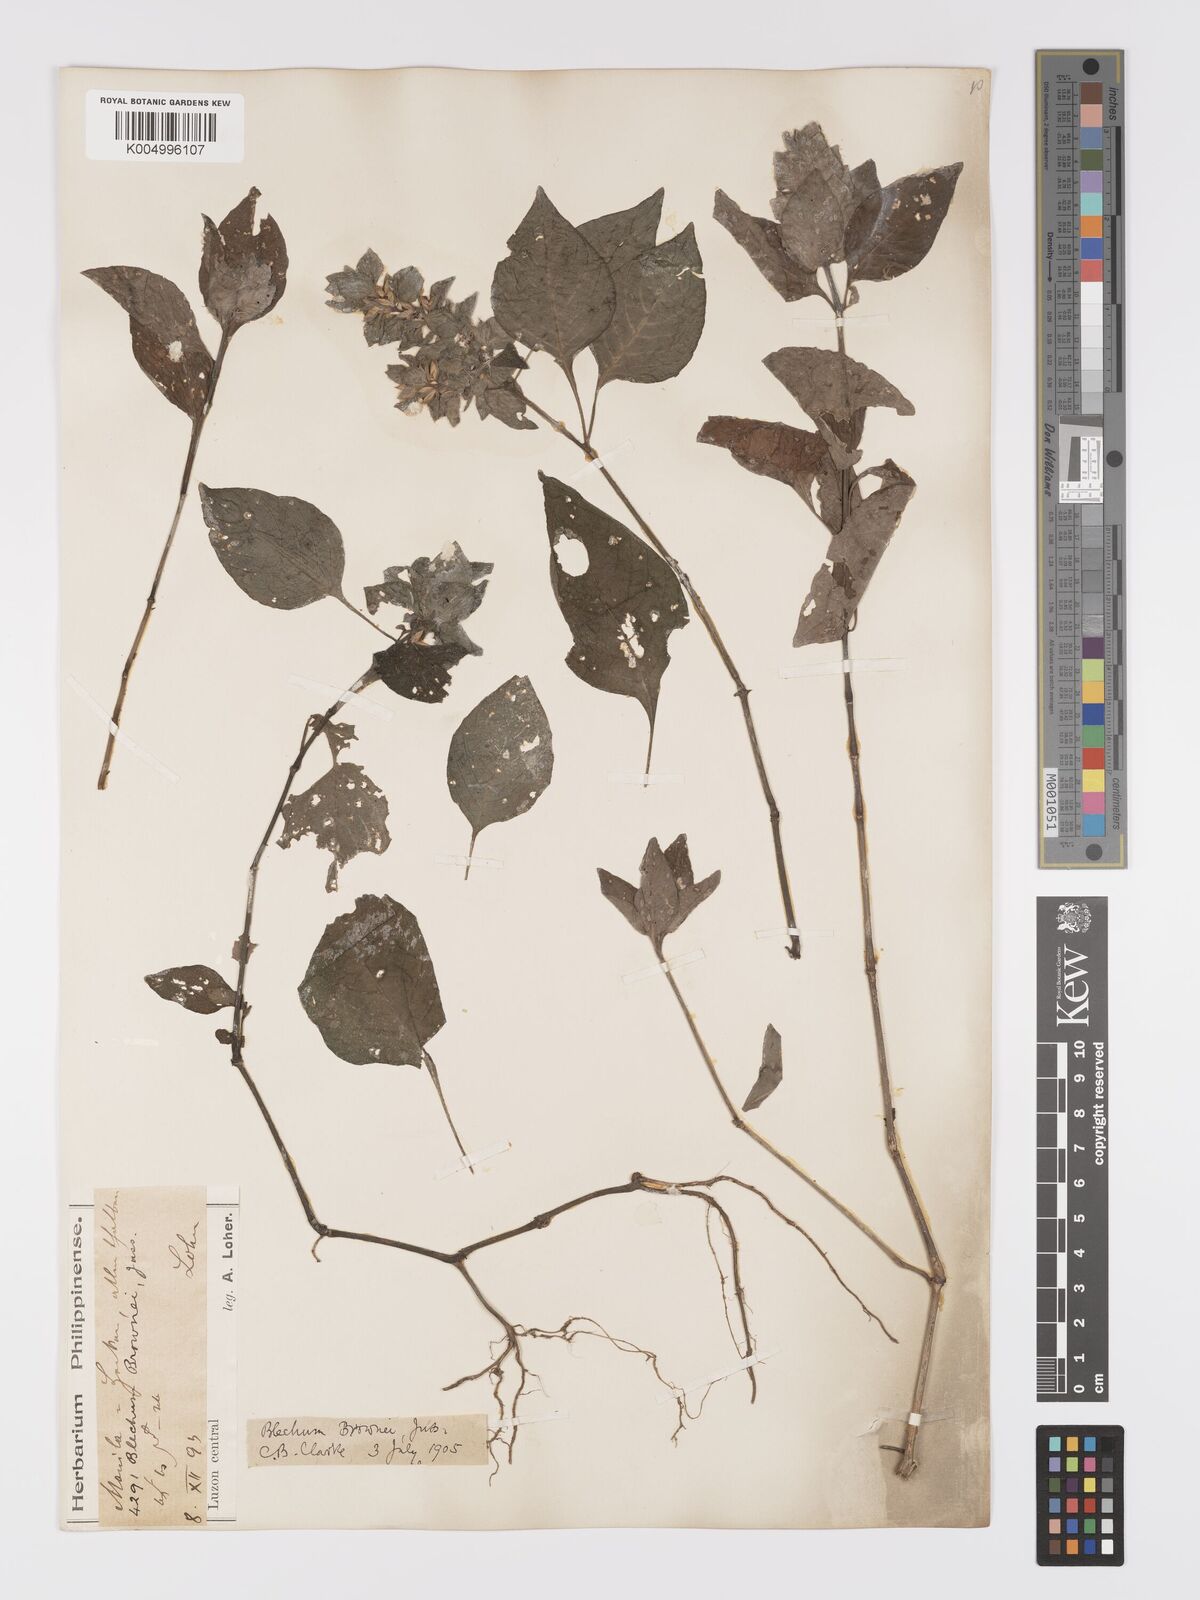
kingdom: Plantae
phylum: Tracheophyta
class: Magnoliopsida
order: Lamiales
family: Acanthaceae
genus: Ruellia
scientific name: Ruellia blechum
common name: Browne's blechum
